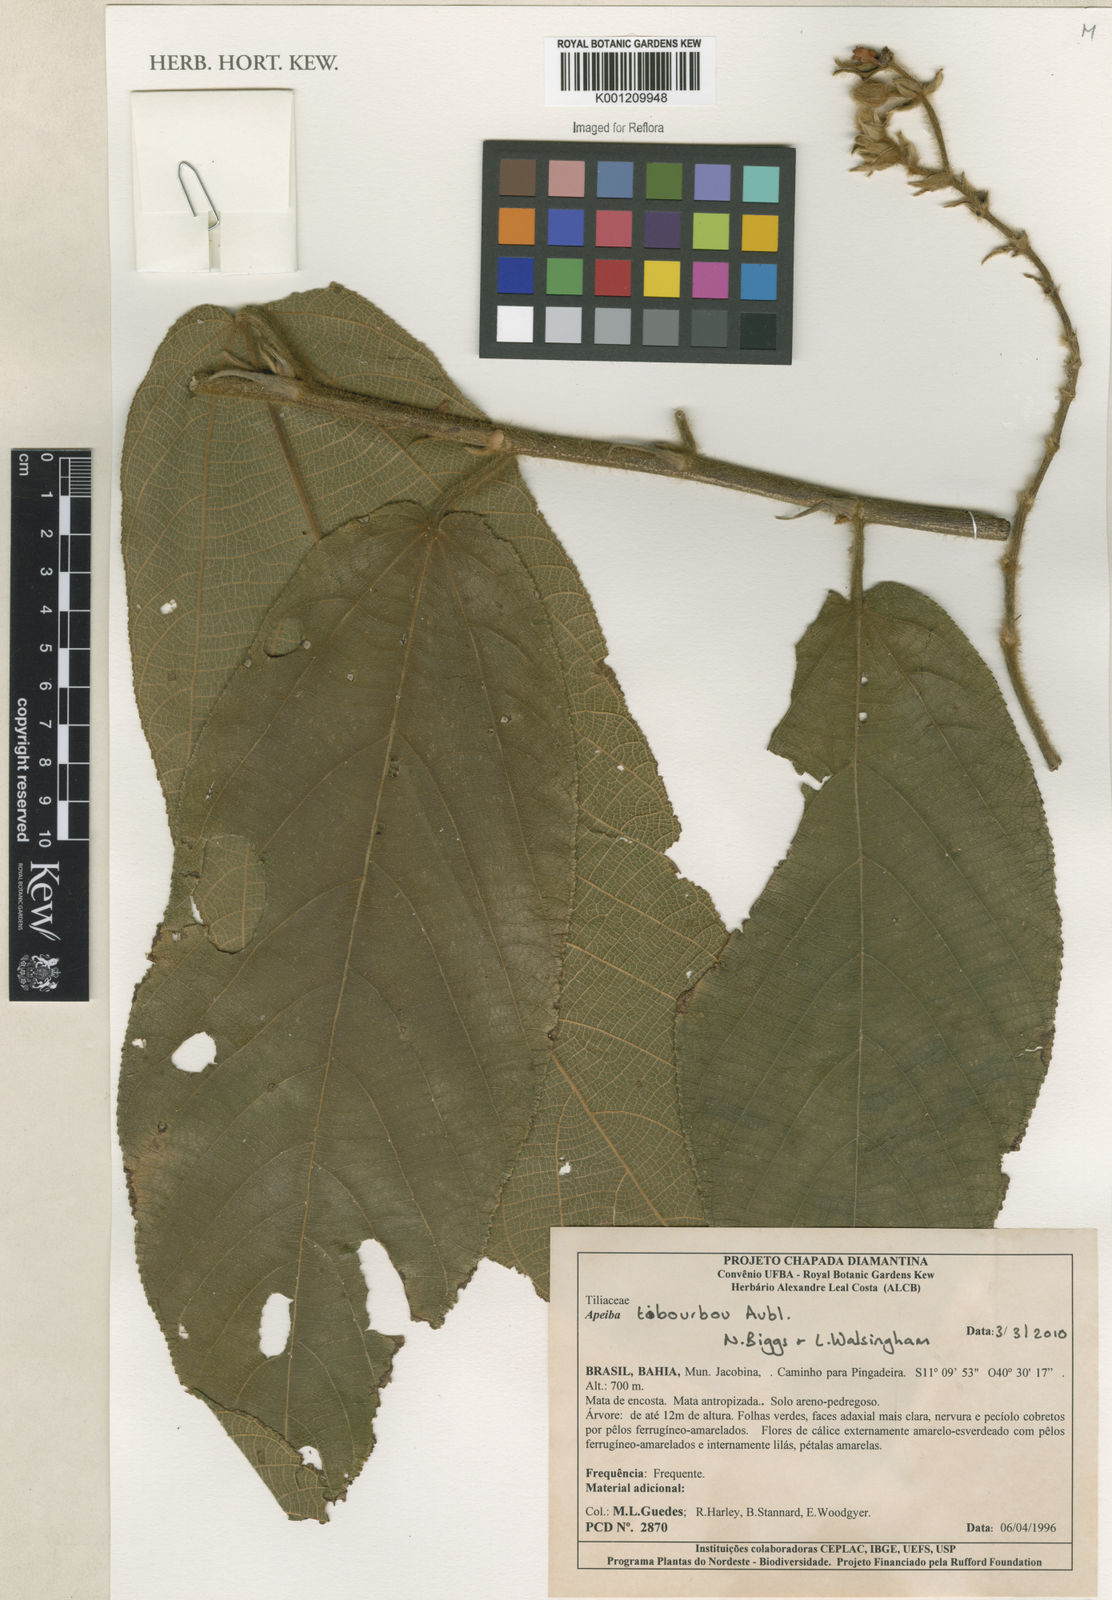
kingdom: Plantae
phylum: Tracheophyta
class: Magnoliopsida
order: Malvales
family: Malvaceae
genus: Apeiba
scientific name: Apeiba tibourbou
